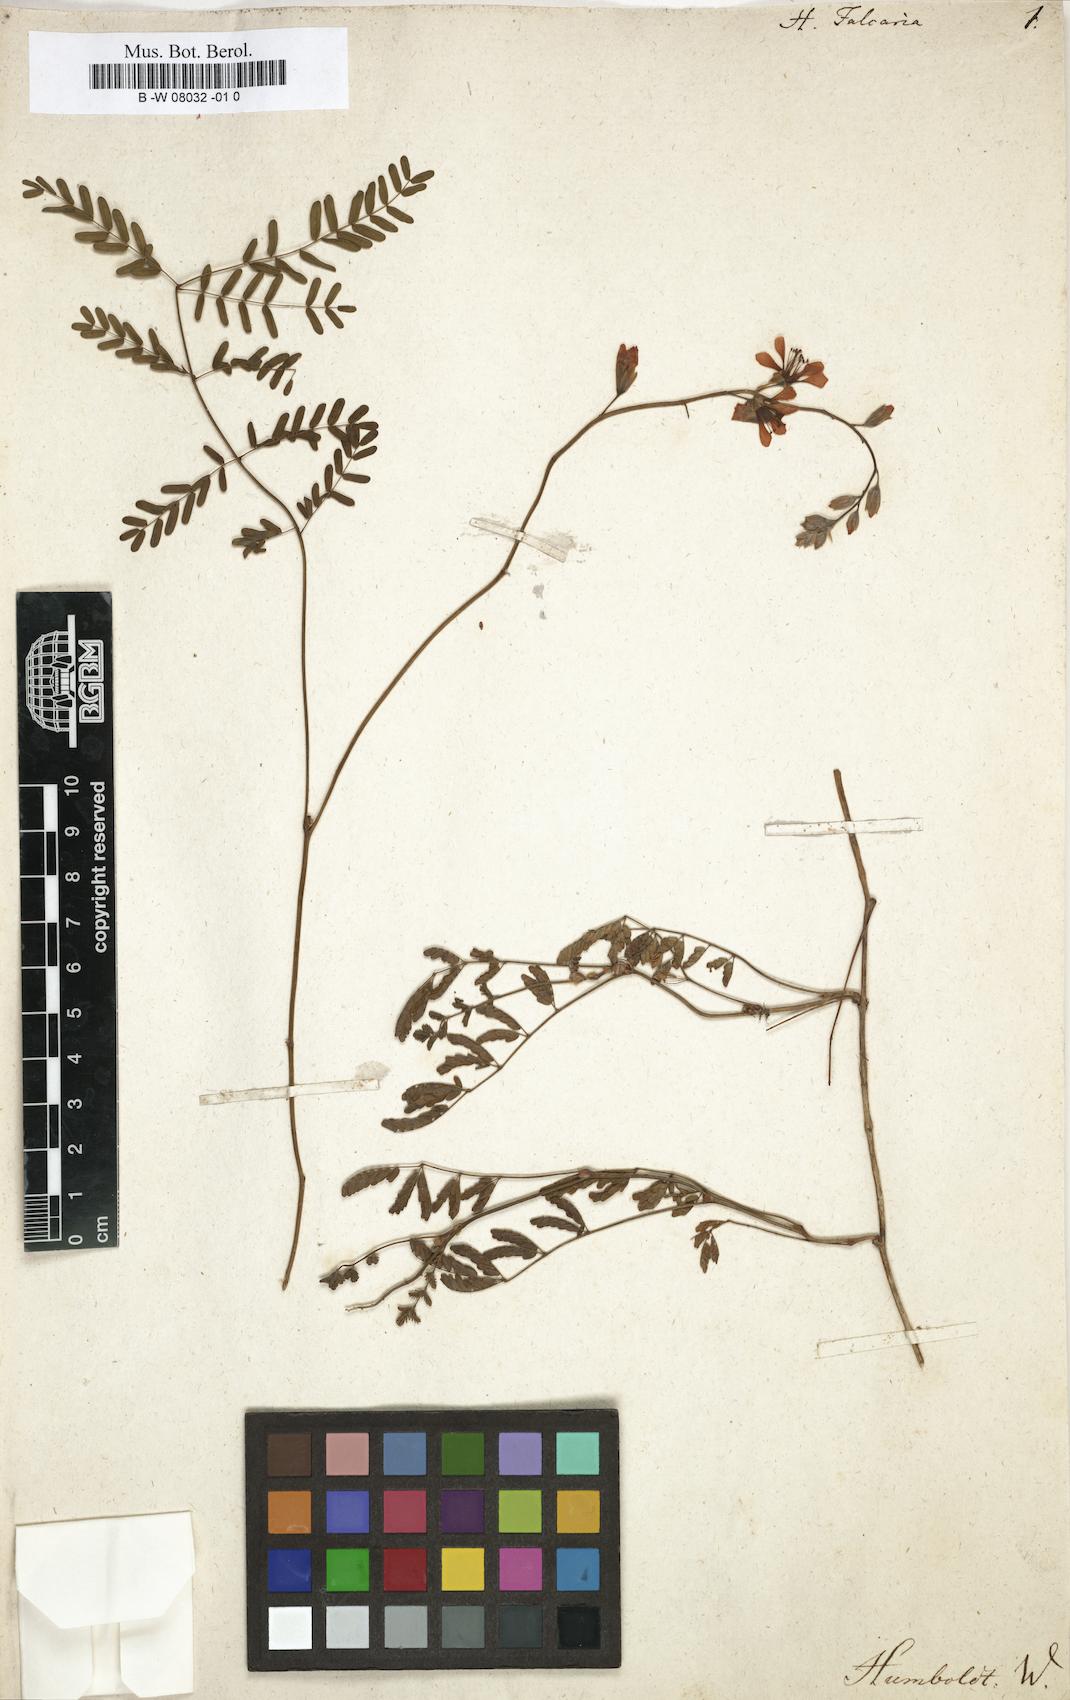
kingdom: Plantae
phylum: Tracheophyta
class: Magnoliopsida
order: Fabales
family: Fabaceae
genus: Hoffmannseggia
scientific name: Hoffmannseggia glauca
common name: Pignut
